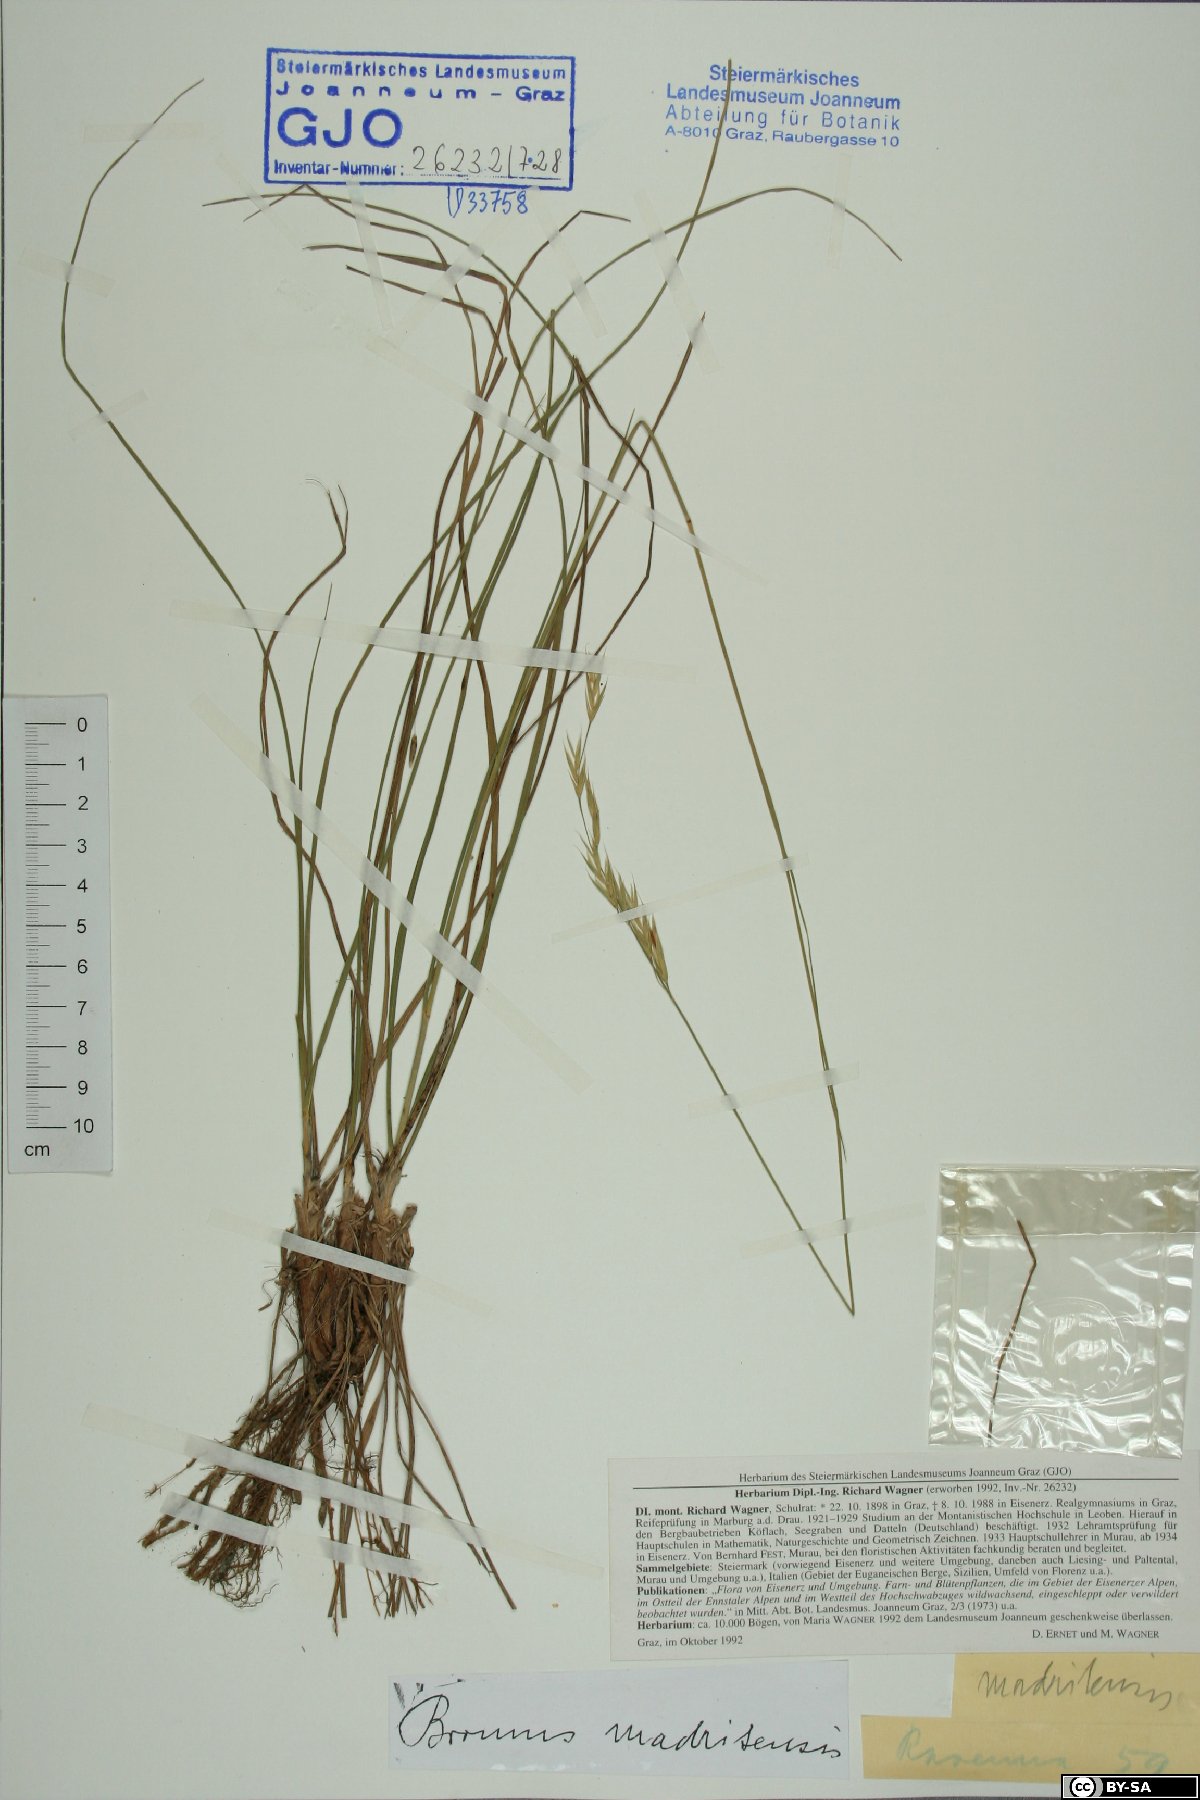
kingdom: Plantae
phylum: Tracheophyta
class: Liliopsida
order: Poales
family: Poaceae
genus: Bromus
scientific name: Bromus madritensis
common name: Compact brome
